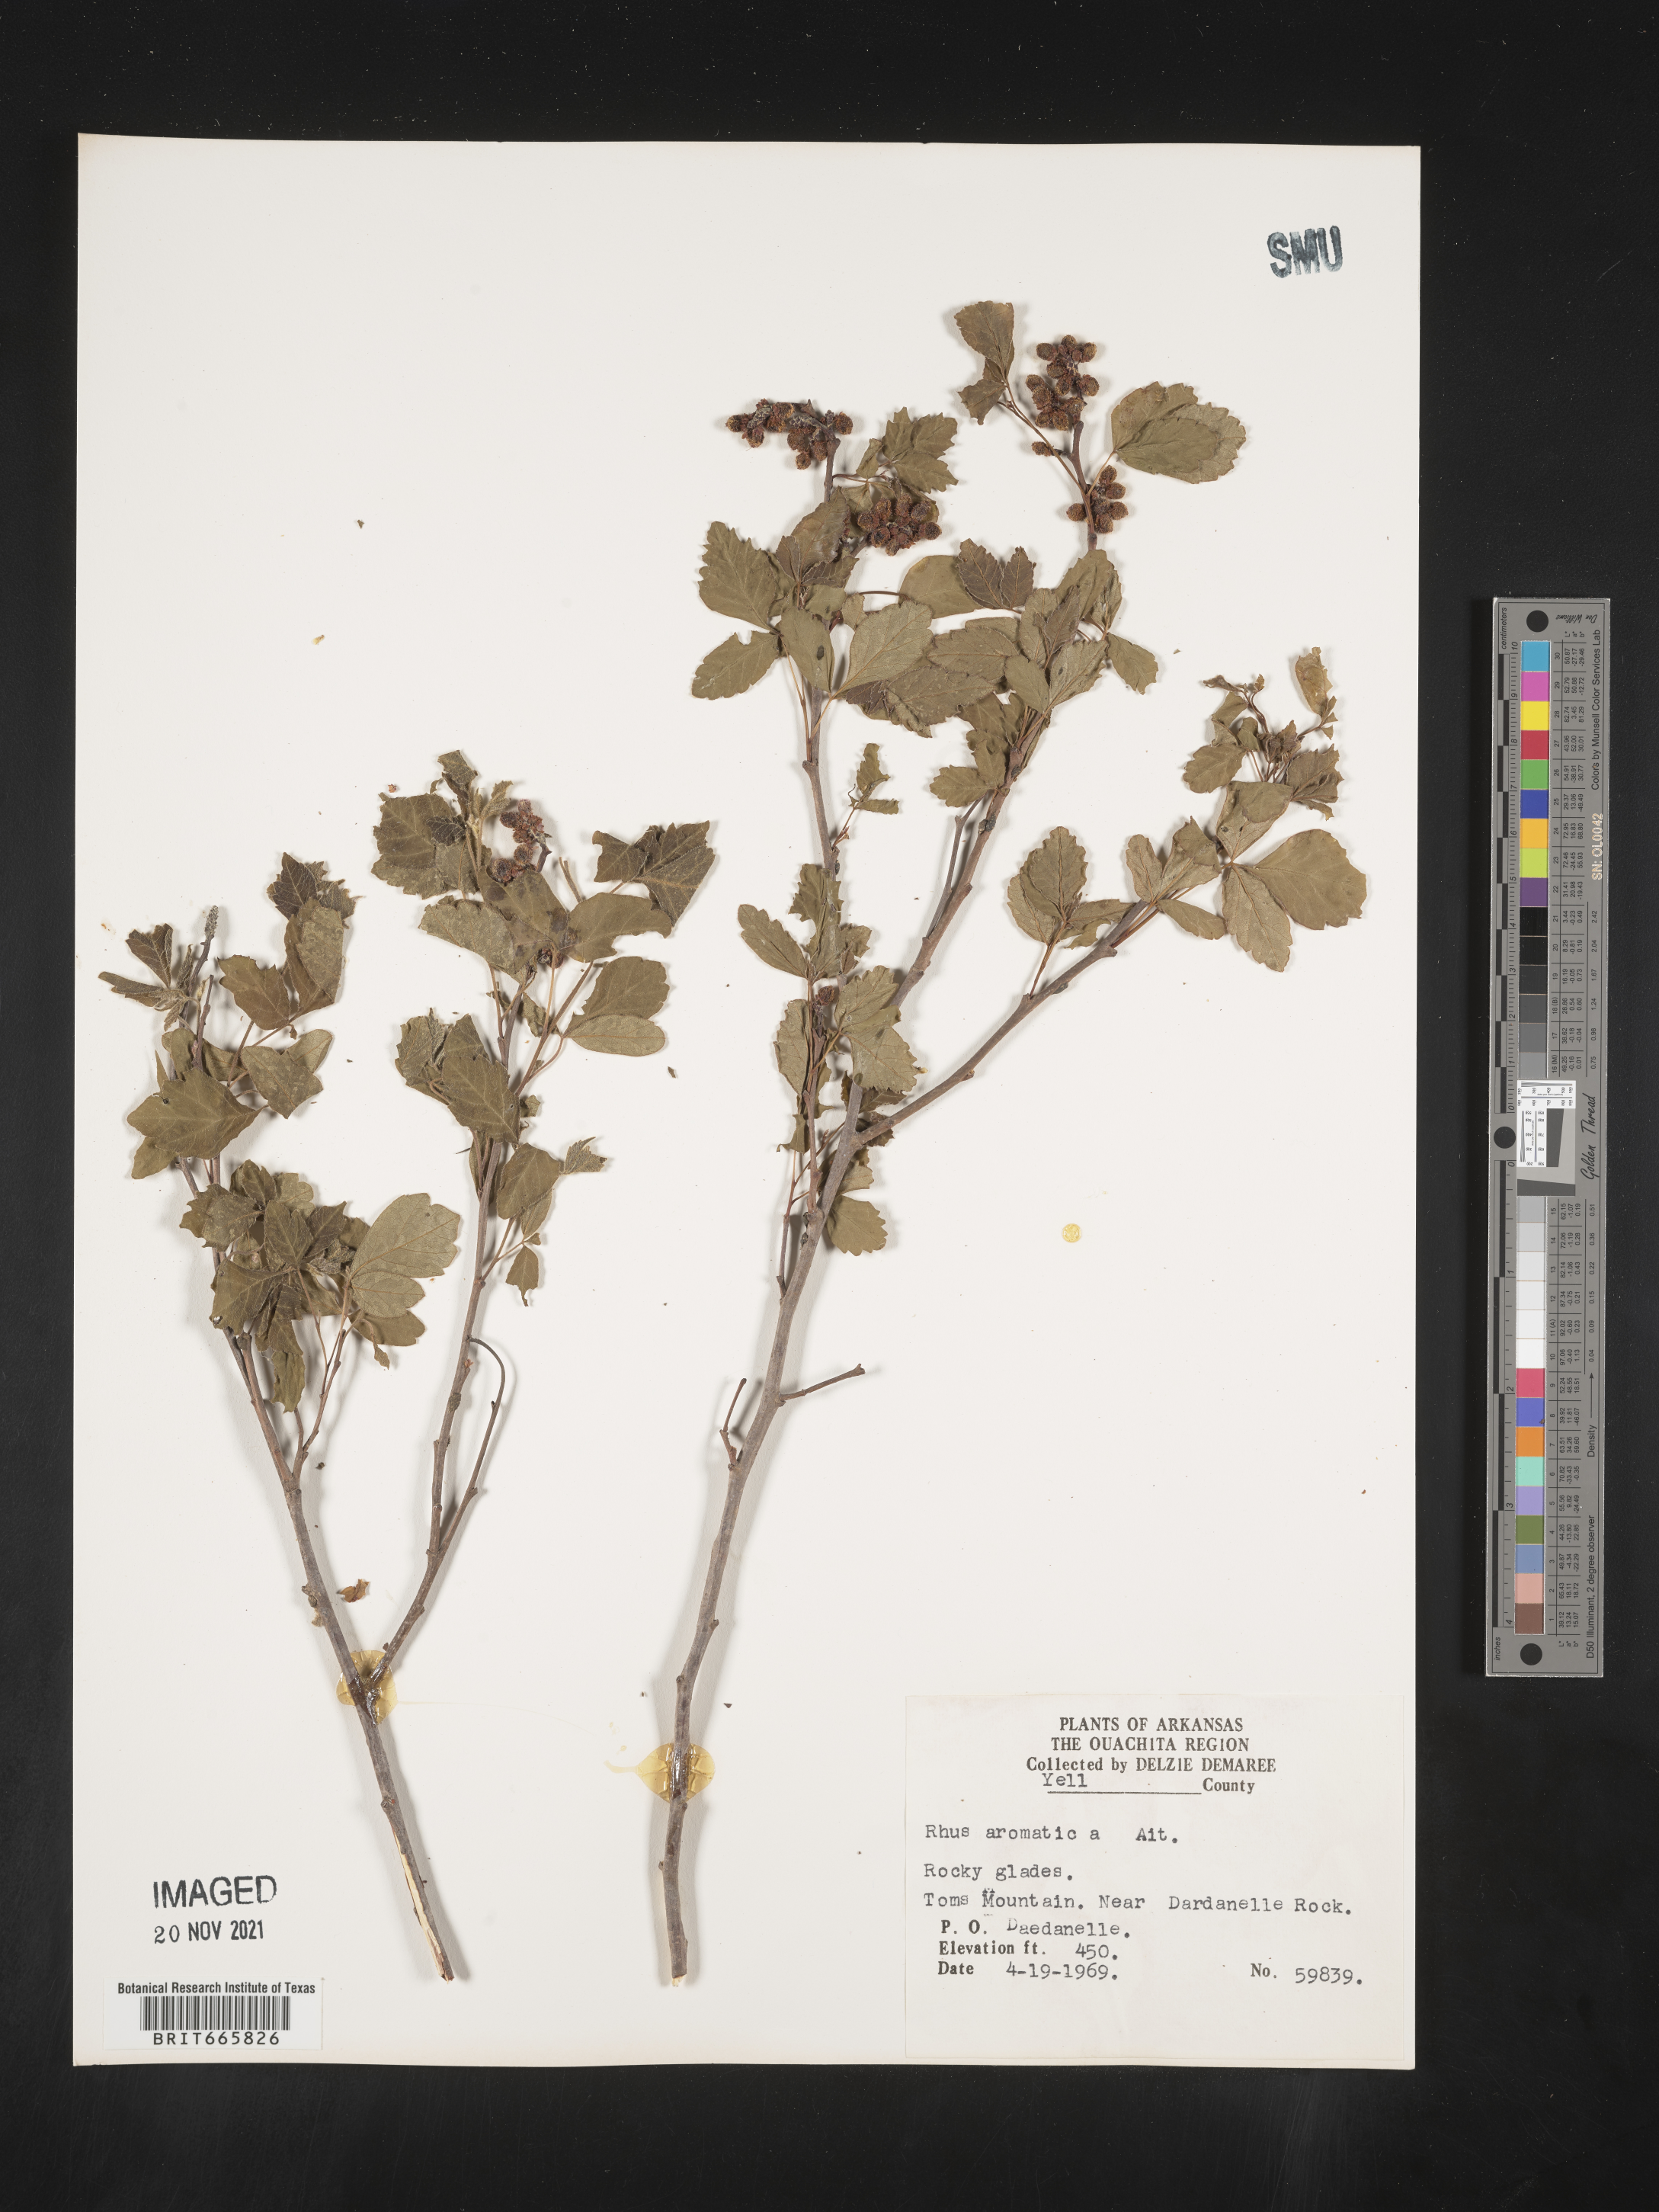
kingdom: Plantae
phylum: Tracheophyta
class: Magnoliopsida
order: Sapindales
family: Anacardiaceae
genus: Rhus
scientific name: Rhus aromatica
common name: Aromatic sumac
